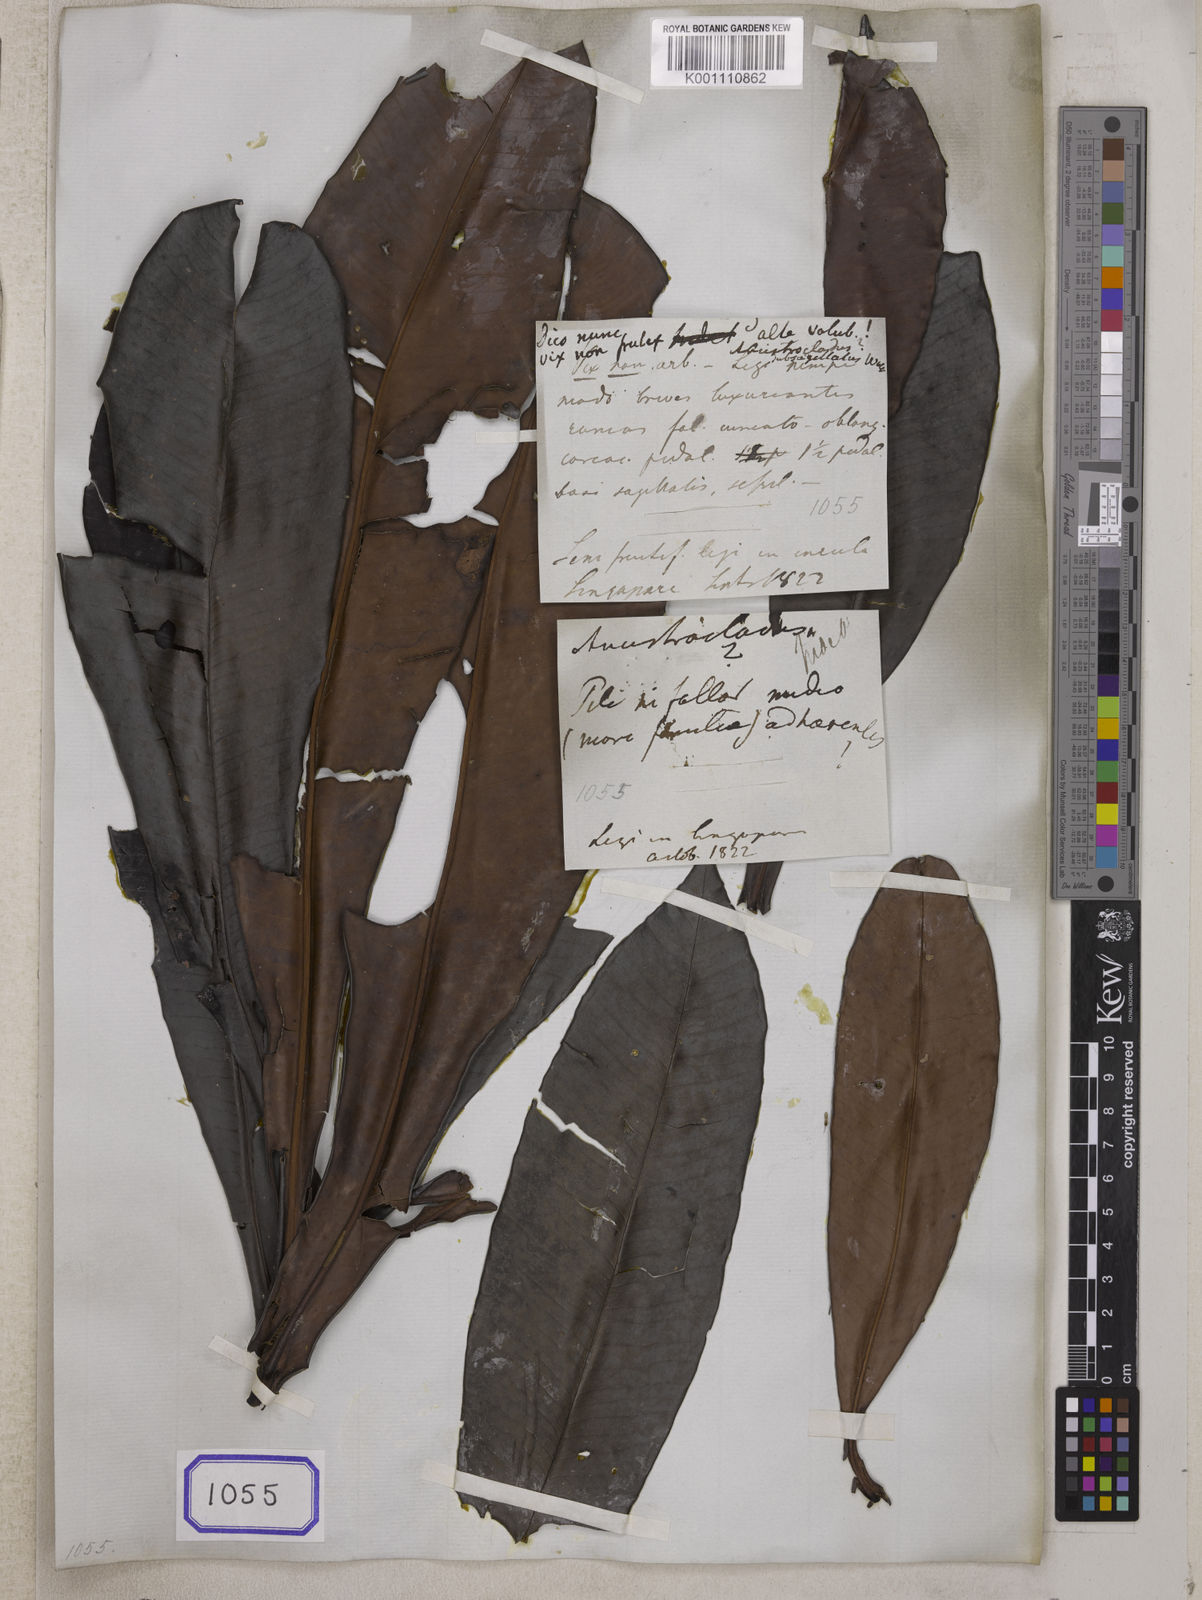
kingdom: Plantae
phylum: Tracheophyta
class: Magnoliopsida
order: Caryophyllales
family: Ancistrocladaceae
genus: Ancistrocladus
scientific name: Ancistrocladus
